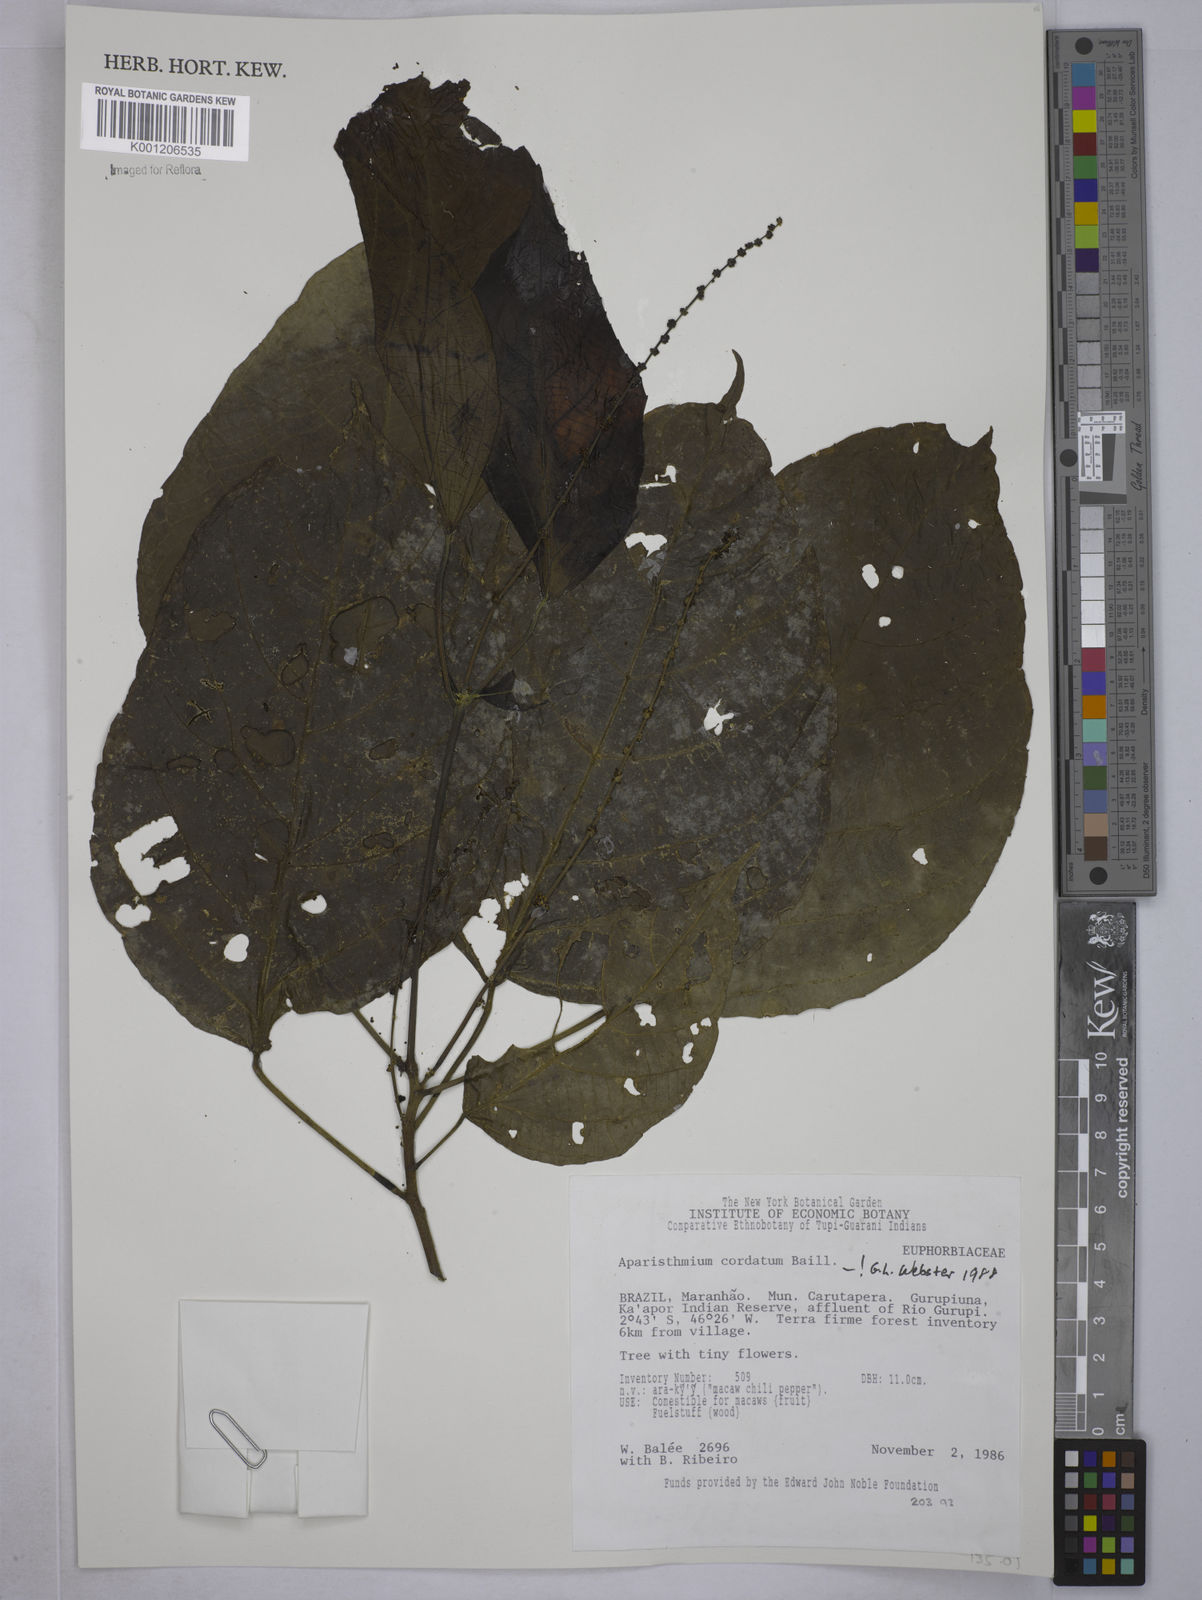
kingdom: Plantae
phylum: Tracheophyta
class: Magnoliopsida
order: Malpighiales
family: Euphorbiaceae
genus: Aparisthmium
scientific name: Aparisthmium cordatum
